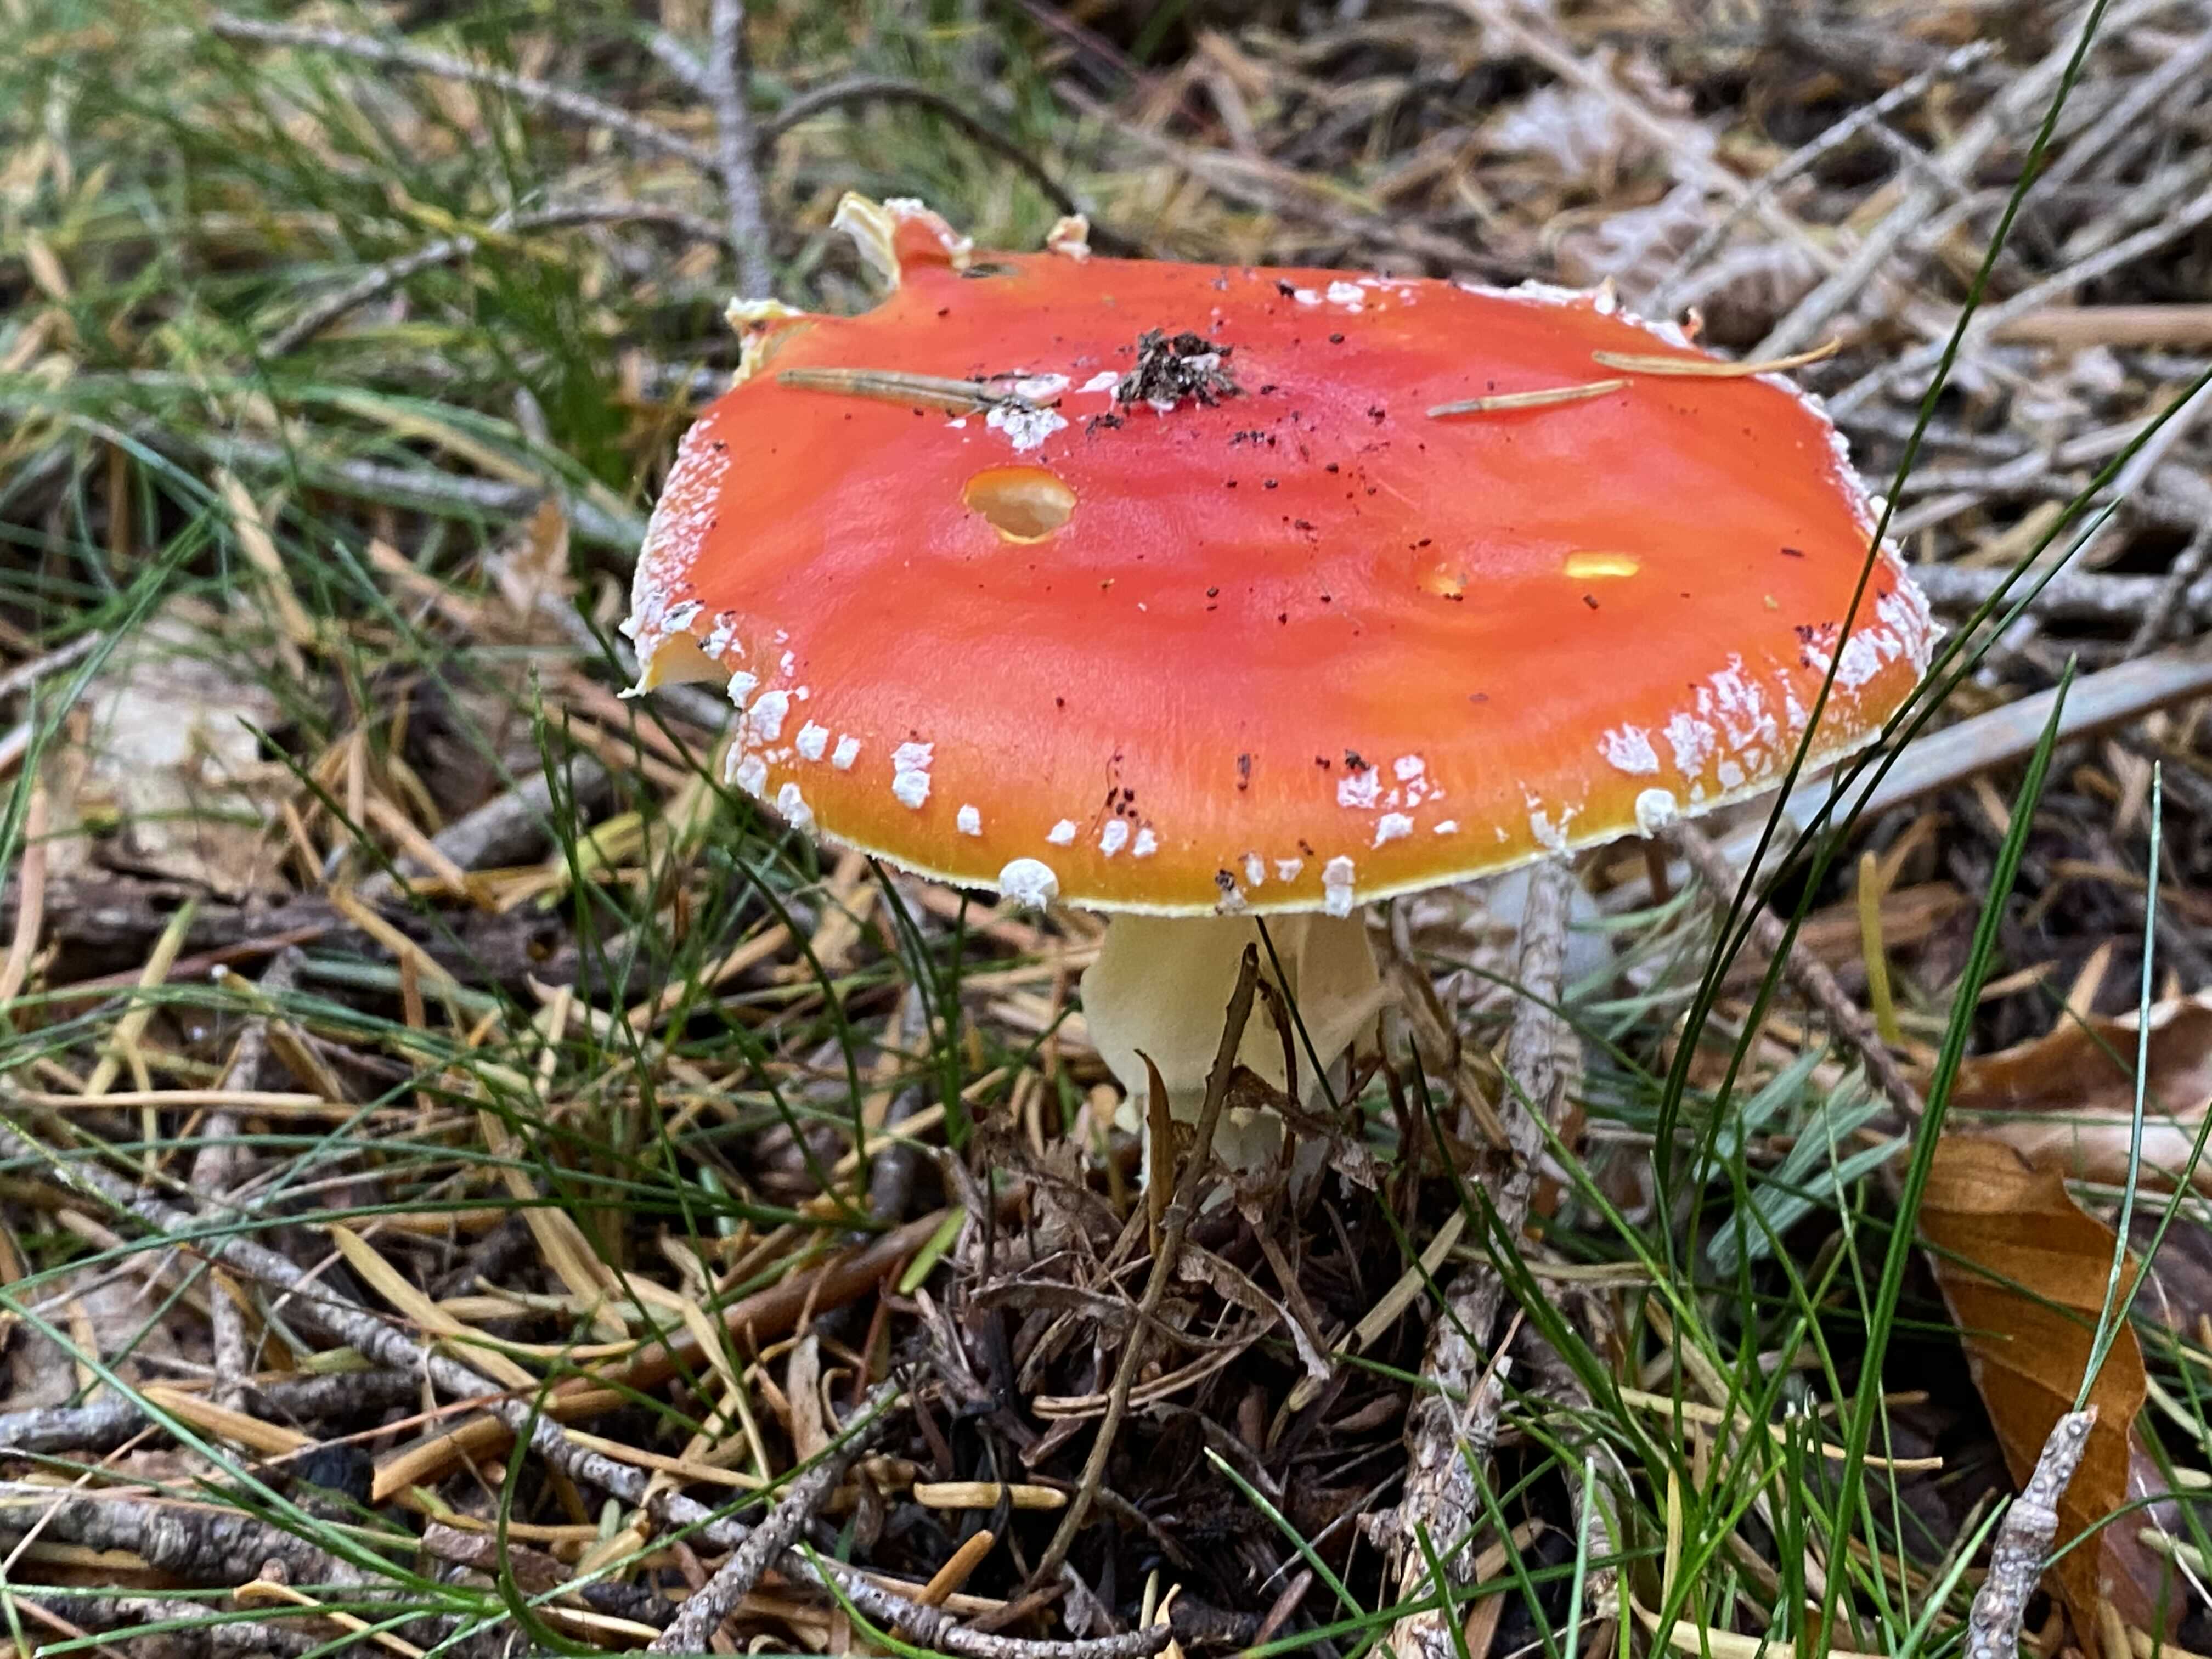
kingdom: Fungi
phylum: Basidiomycota
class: Agaricomycetes
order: Agaricales
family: Amanitaceae
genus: Amanita
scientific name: Amanita muscaria
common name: rød fluesvamp
